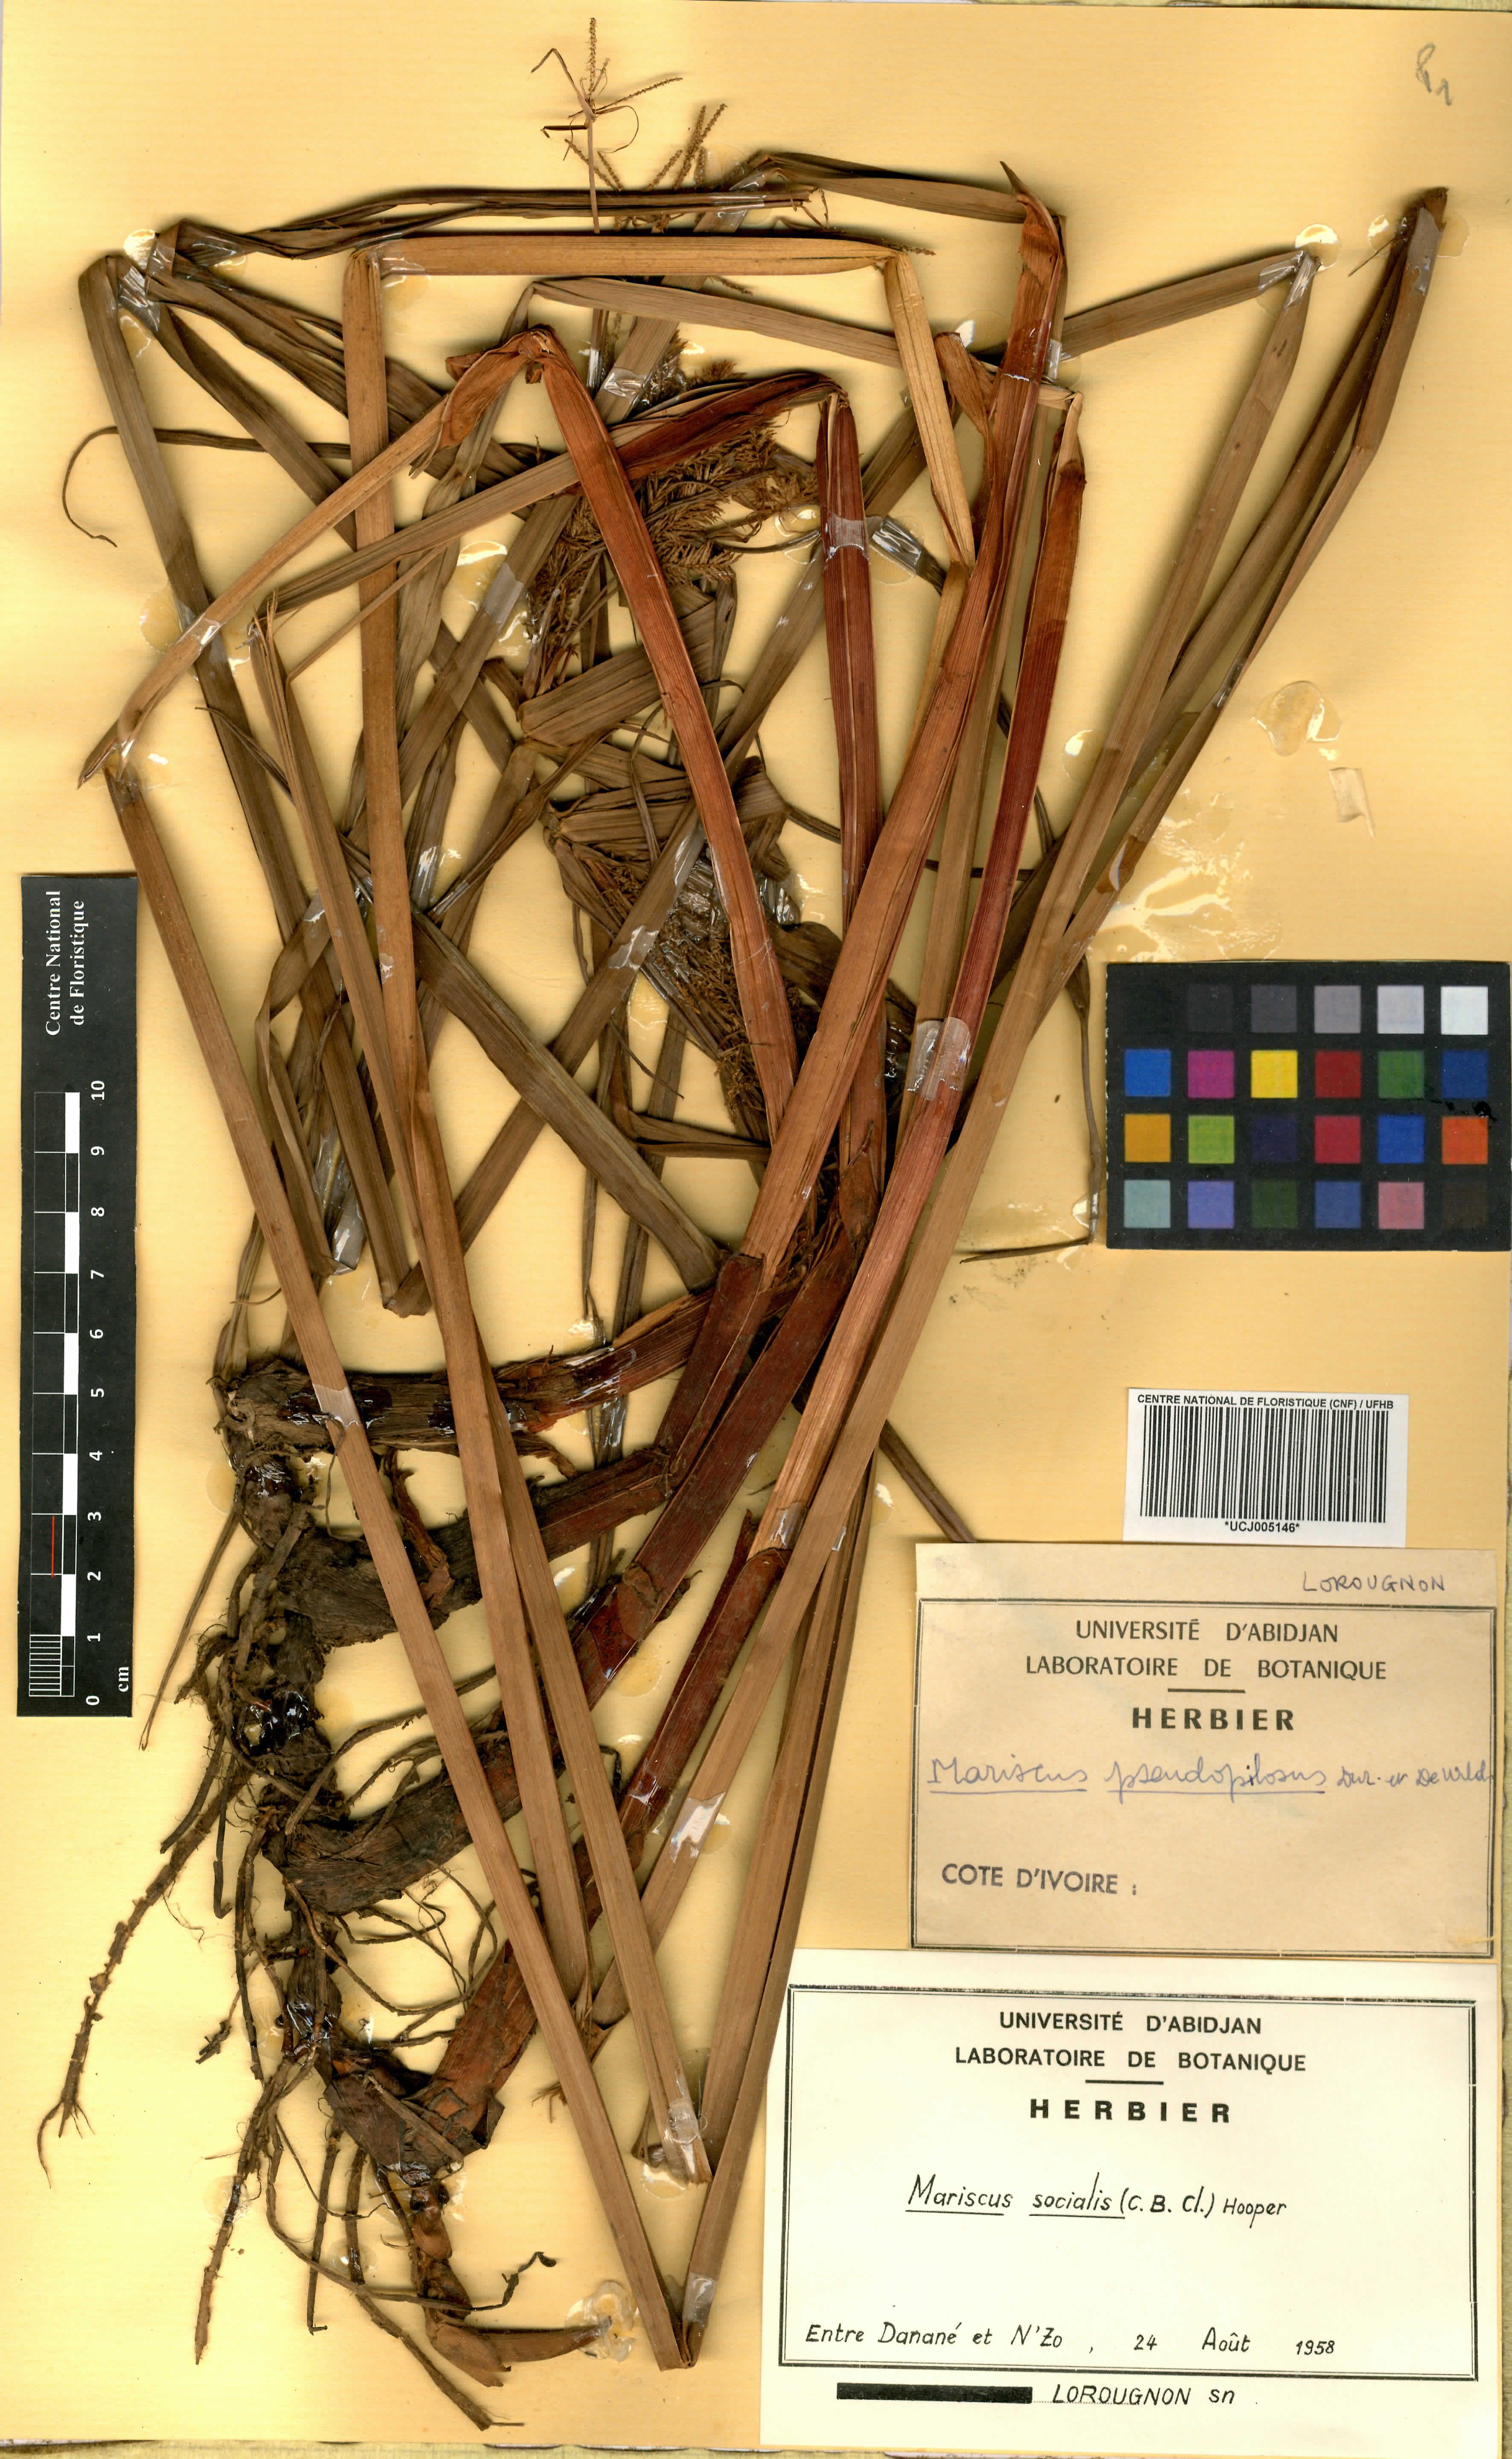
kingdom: Plantae
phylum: Tracheophyta
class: Liliopsida
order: Poales
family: Cyperaceae
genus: Cyperus
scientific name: Cyperus pseudopilosus
